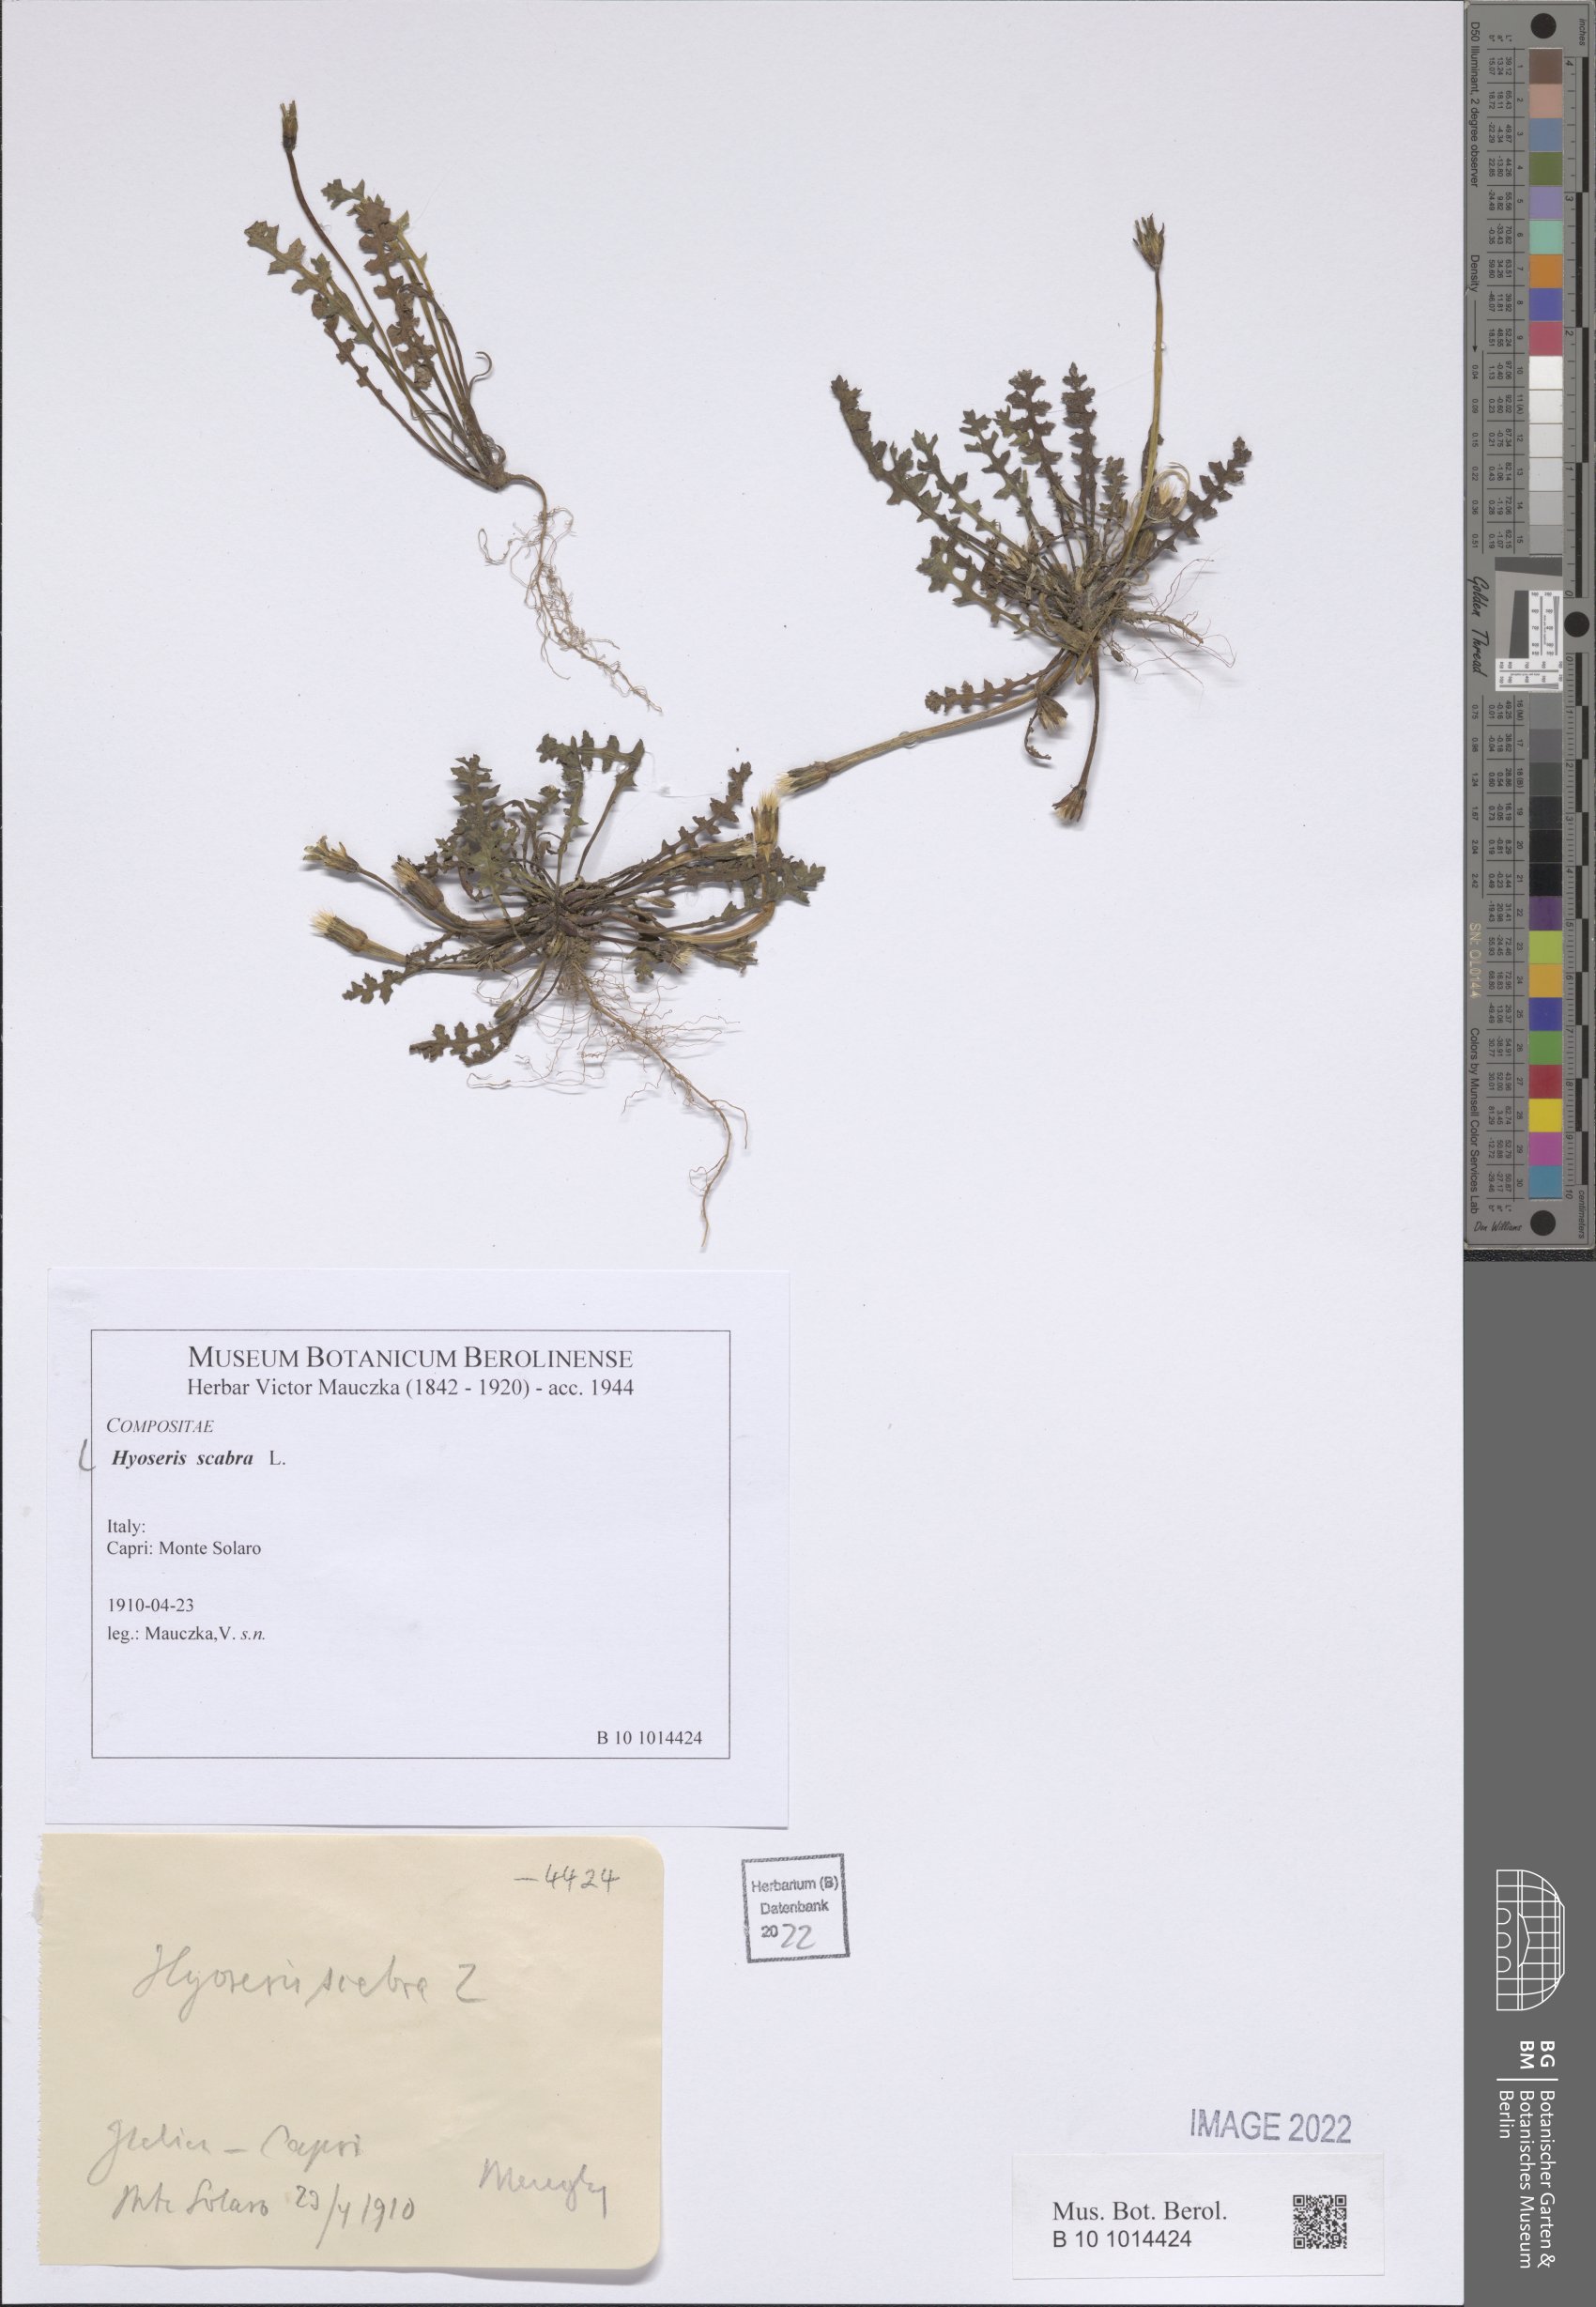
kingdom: Plantae
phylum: Tracheophyta
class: Magnoliopsida
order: Asterales
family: Asteraceae
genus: Hyoseris
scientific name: Hyoseris scabra
